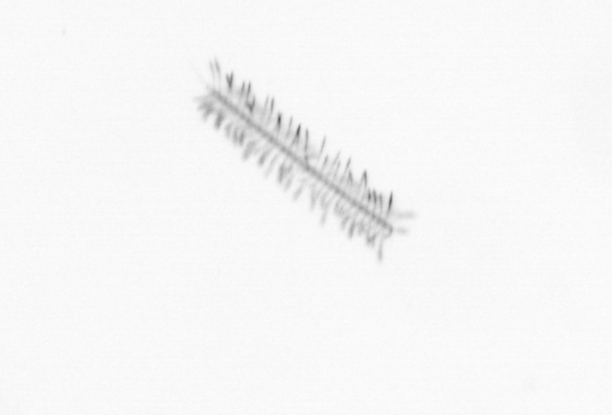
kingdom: Chromista
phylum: Ochrophyta
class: Bacillariophyceae
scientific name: Bacillariophyceae
